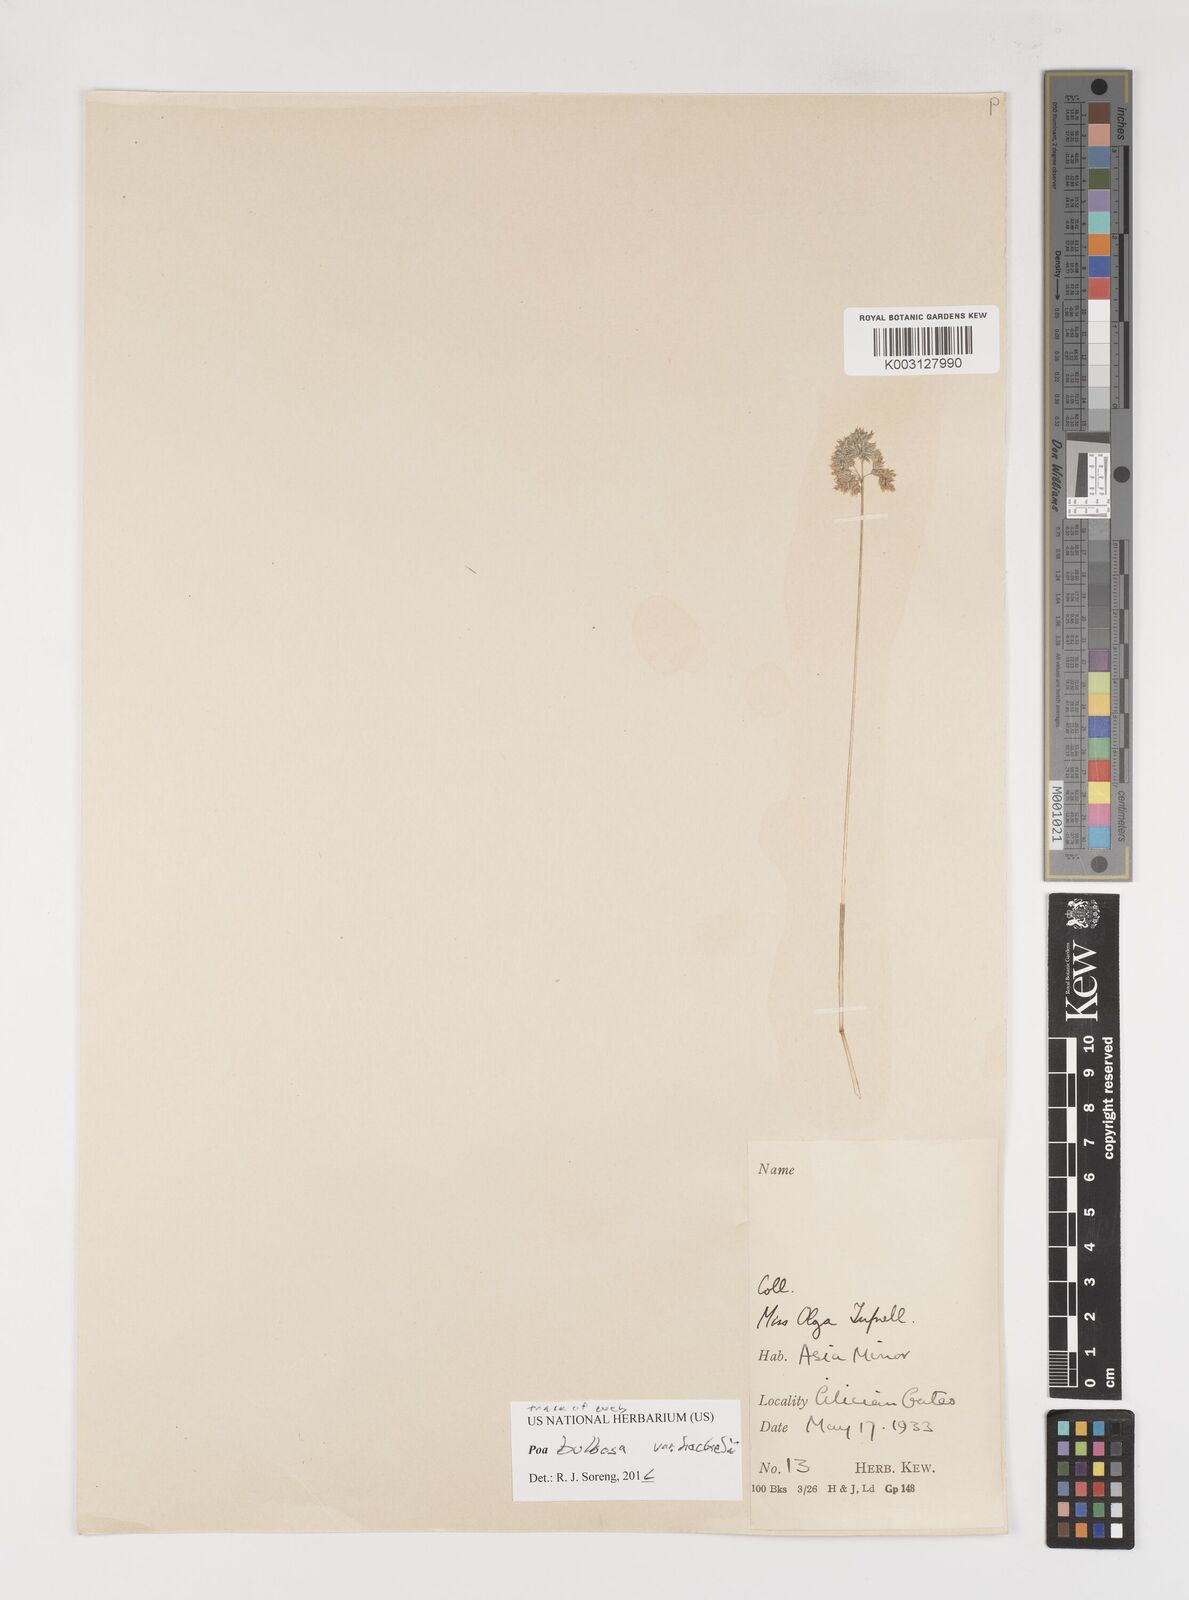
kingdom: Plantae
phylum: Tracheophyta
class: Liliopsida
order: Poales
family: Poaceae
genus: Poa
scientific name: Poa
